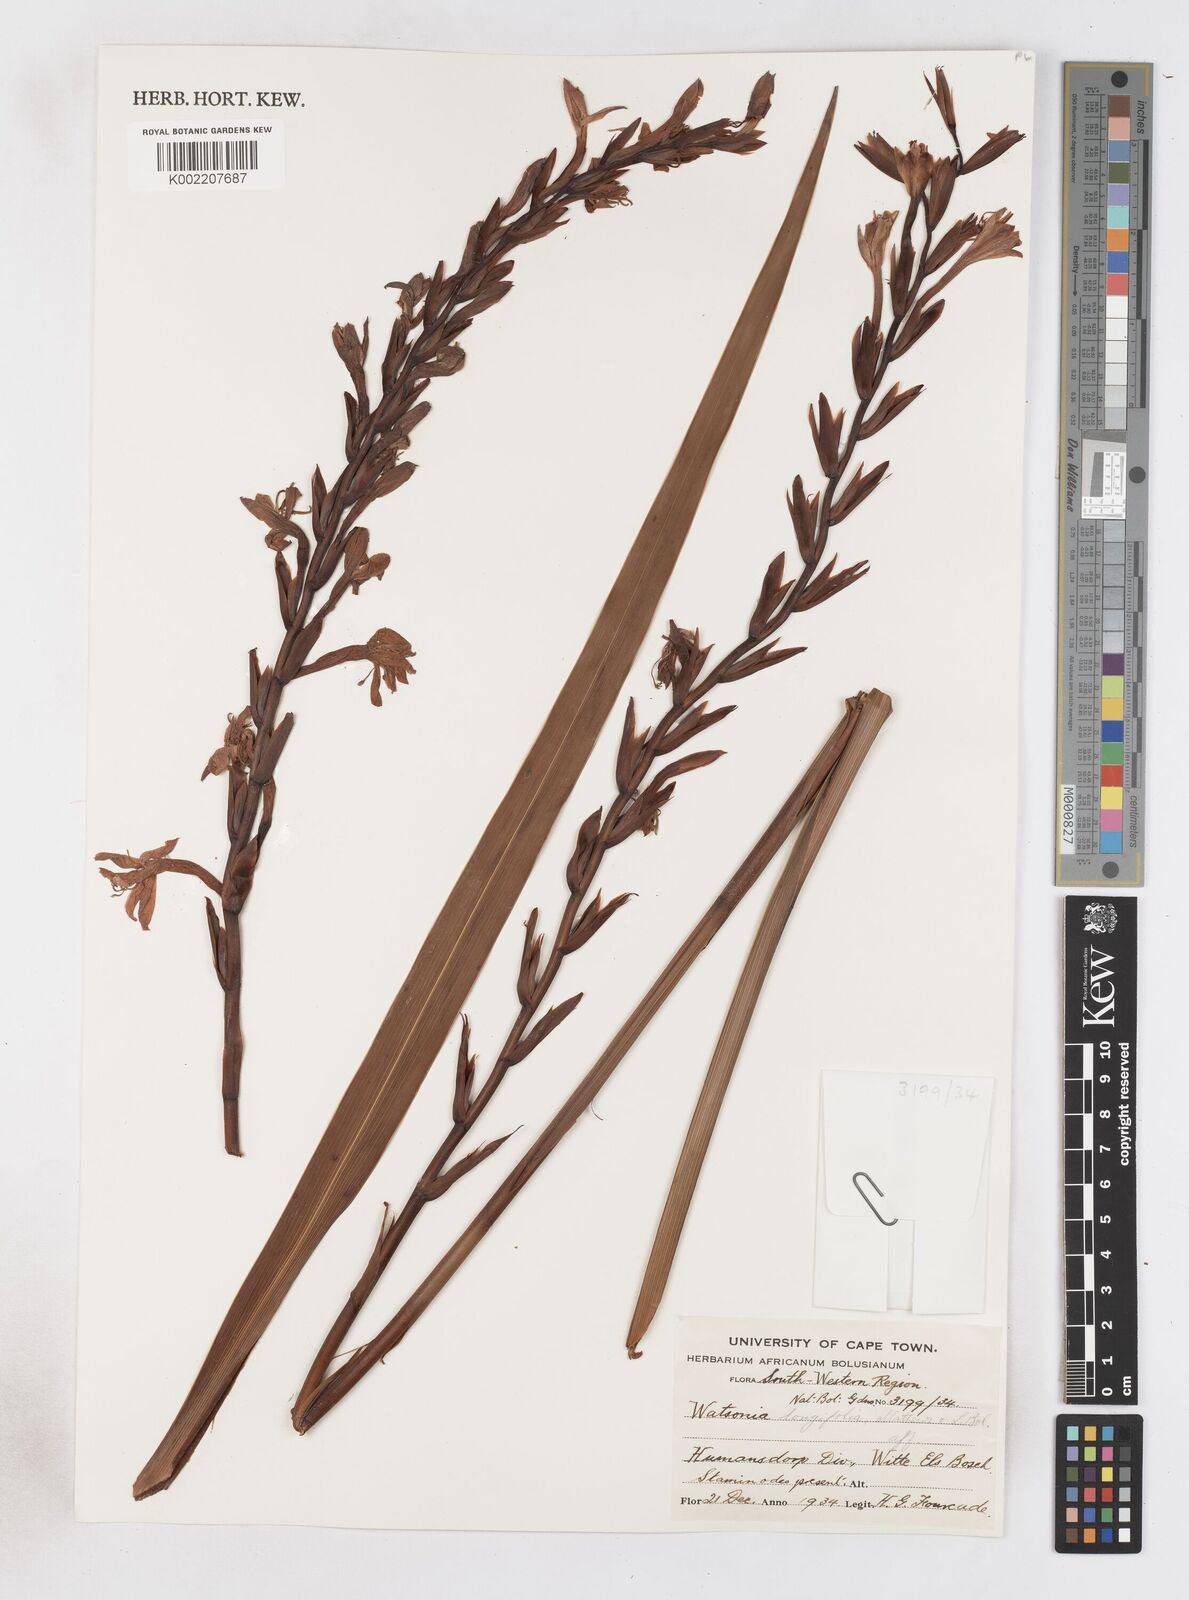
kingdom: Plantae
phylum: Tracheophyta
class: Liliopsida
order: Asparagales
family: Iridaceae
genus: Watsonia
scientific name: Watsonia longifolia
